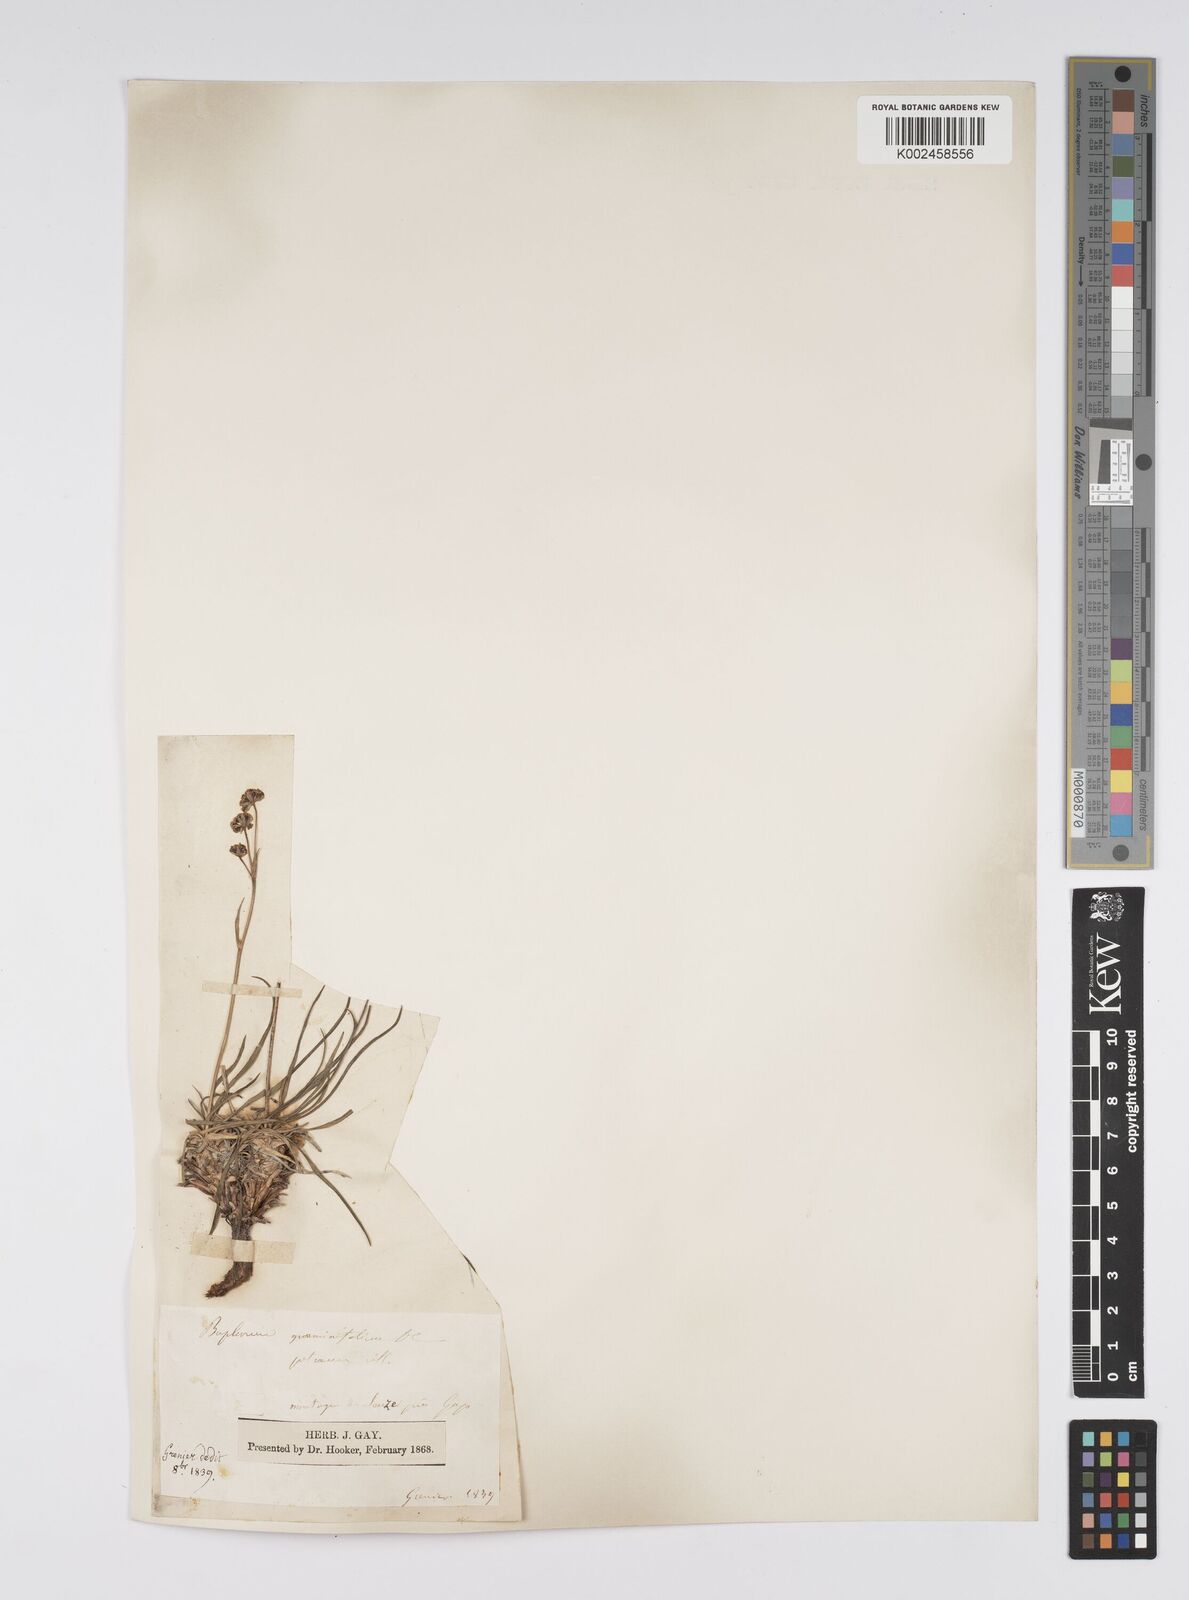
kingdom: Plantae
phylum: Tracheophyta
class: Magnoliopsida
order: Apiales
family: Apiaceae
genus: Bupleurum
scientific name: Bupleurum petraeum
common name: Rock hare's-ear
